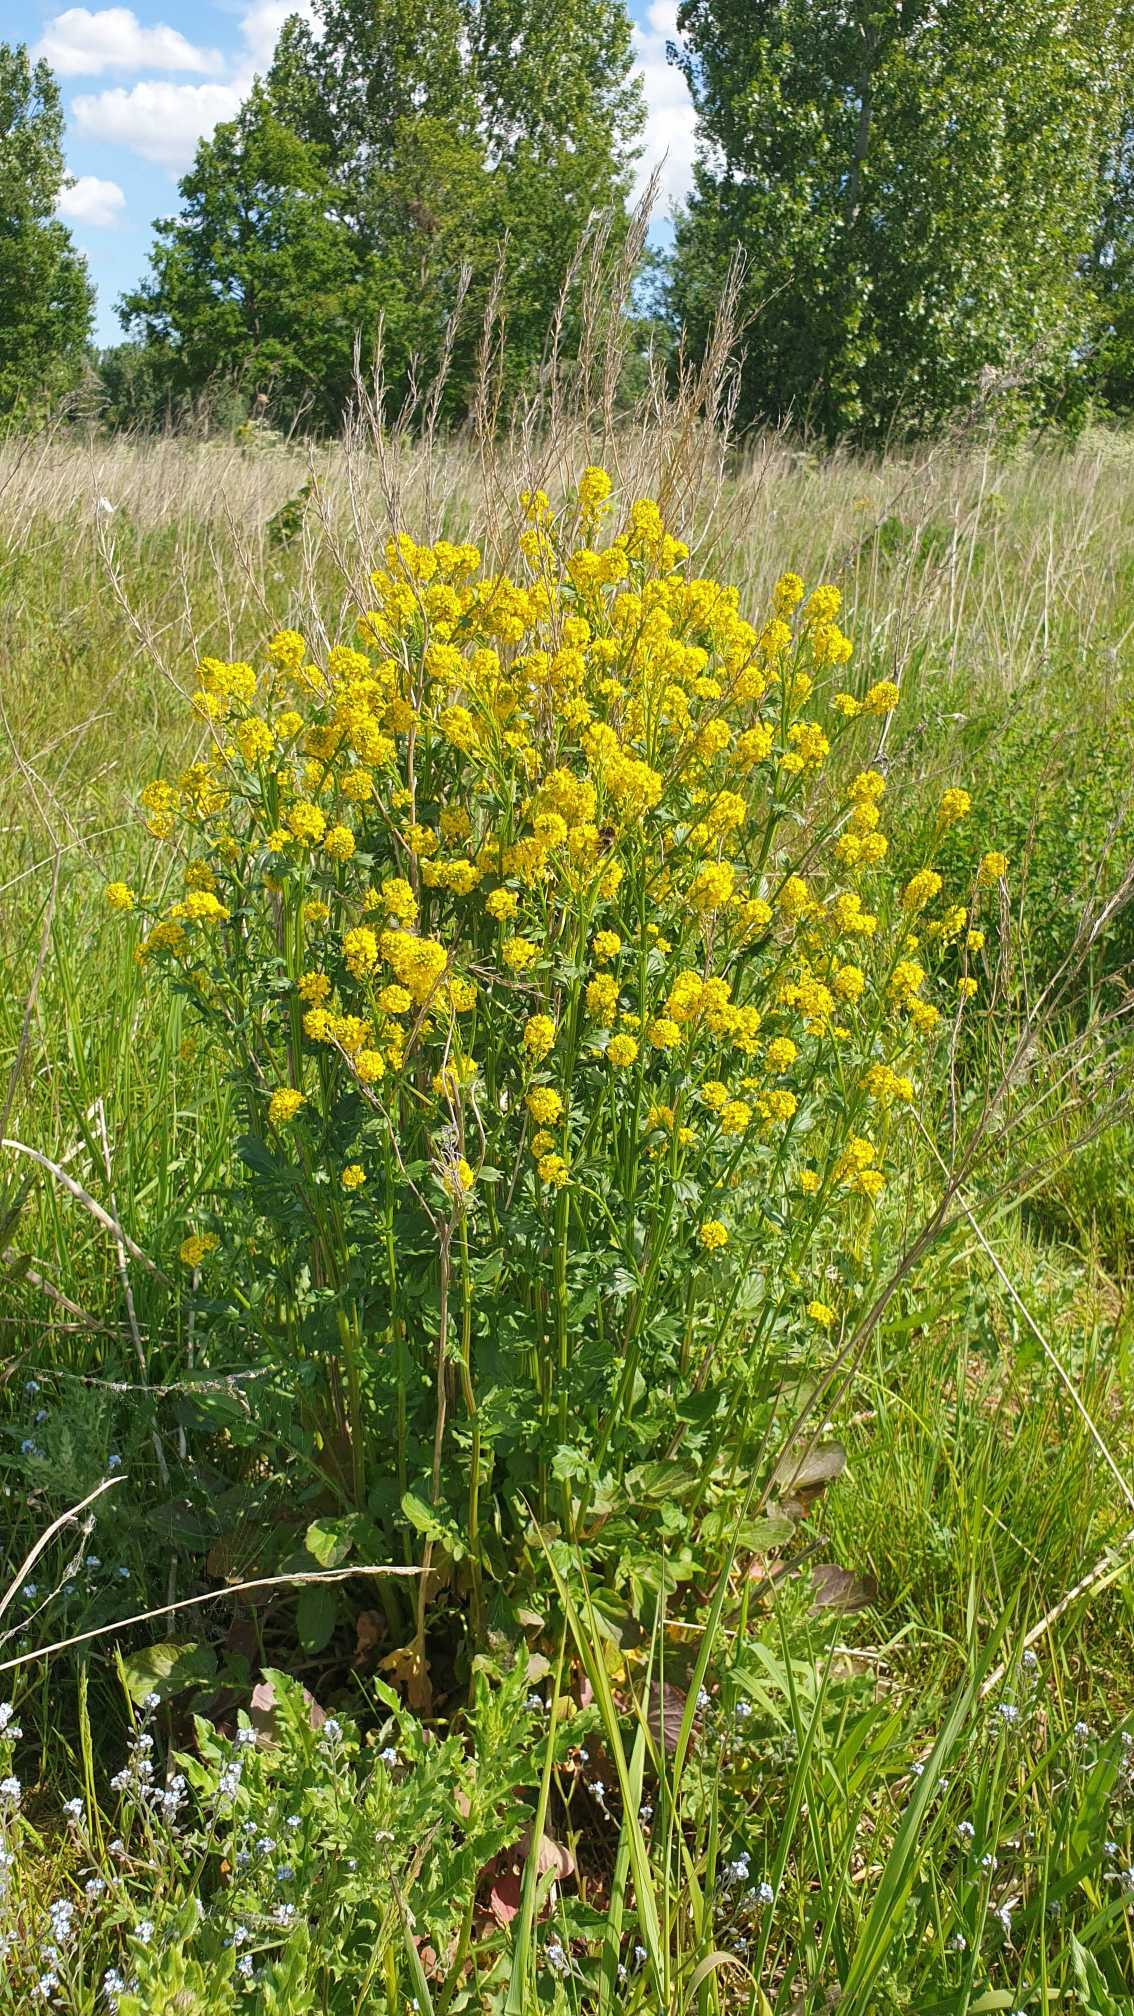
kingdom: Plantae
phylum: Tracheophyta
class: Magnoliopsida
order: Brassicales
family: Brassicaceae
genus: Barbarea
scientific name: Barbarea vulgaris
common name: Almindelig vinterkarse (varietet)
